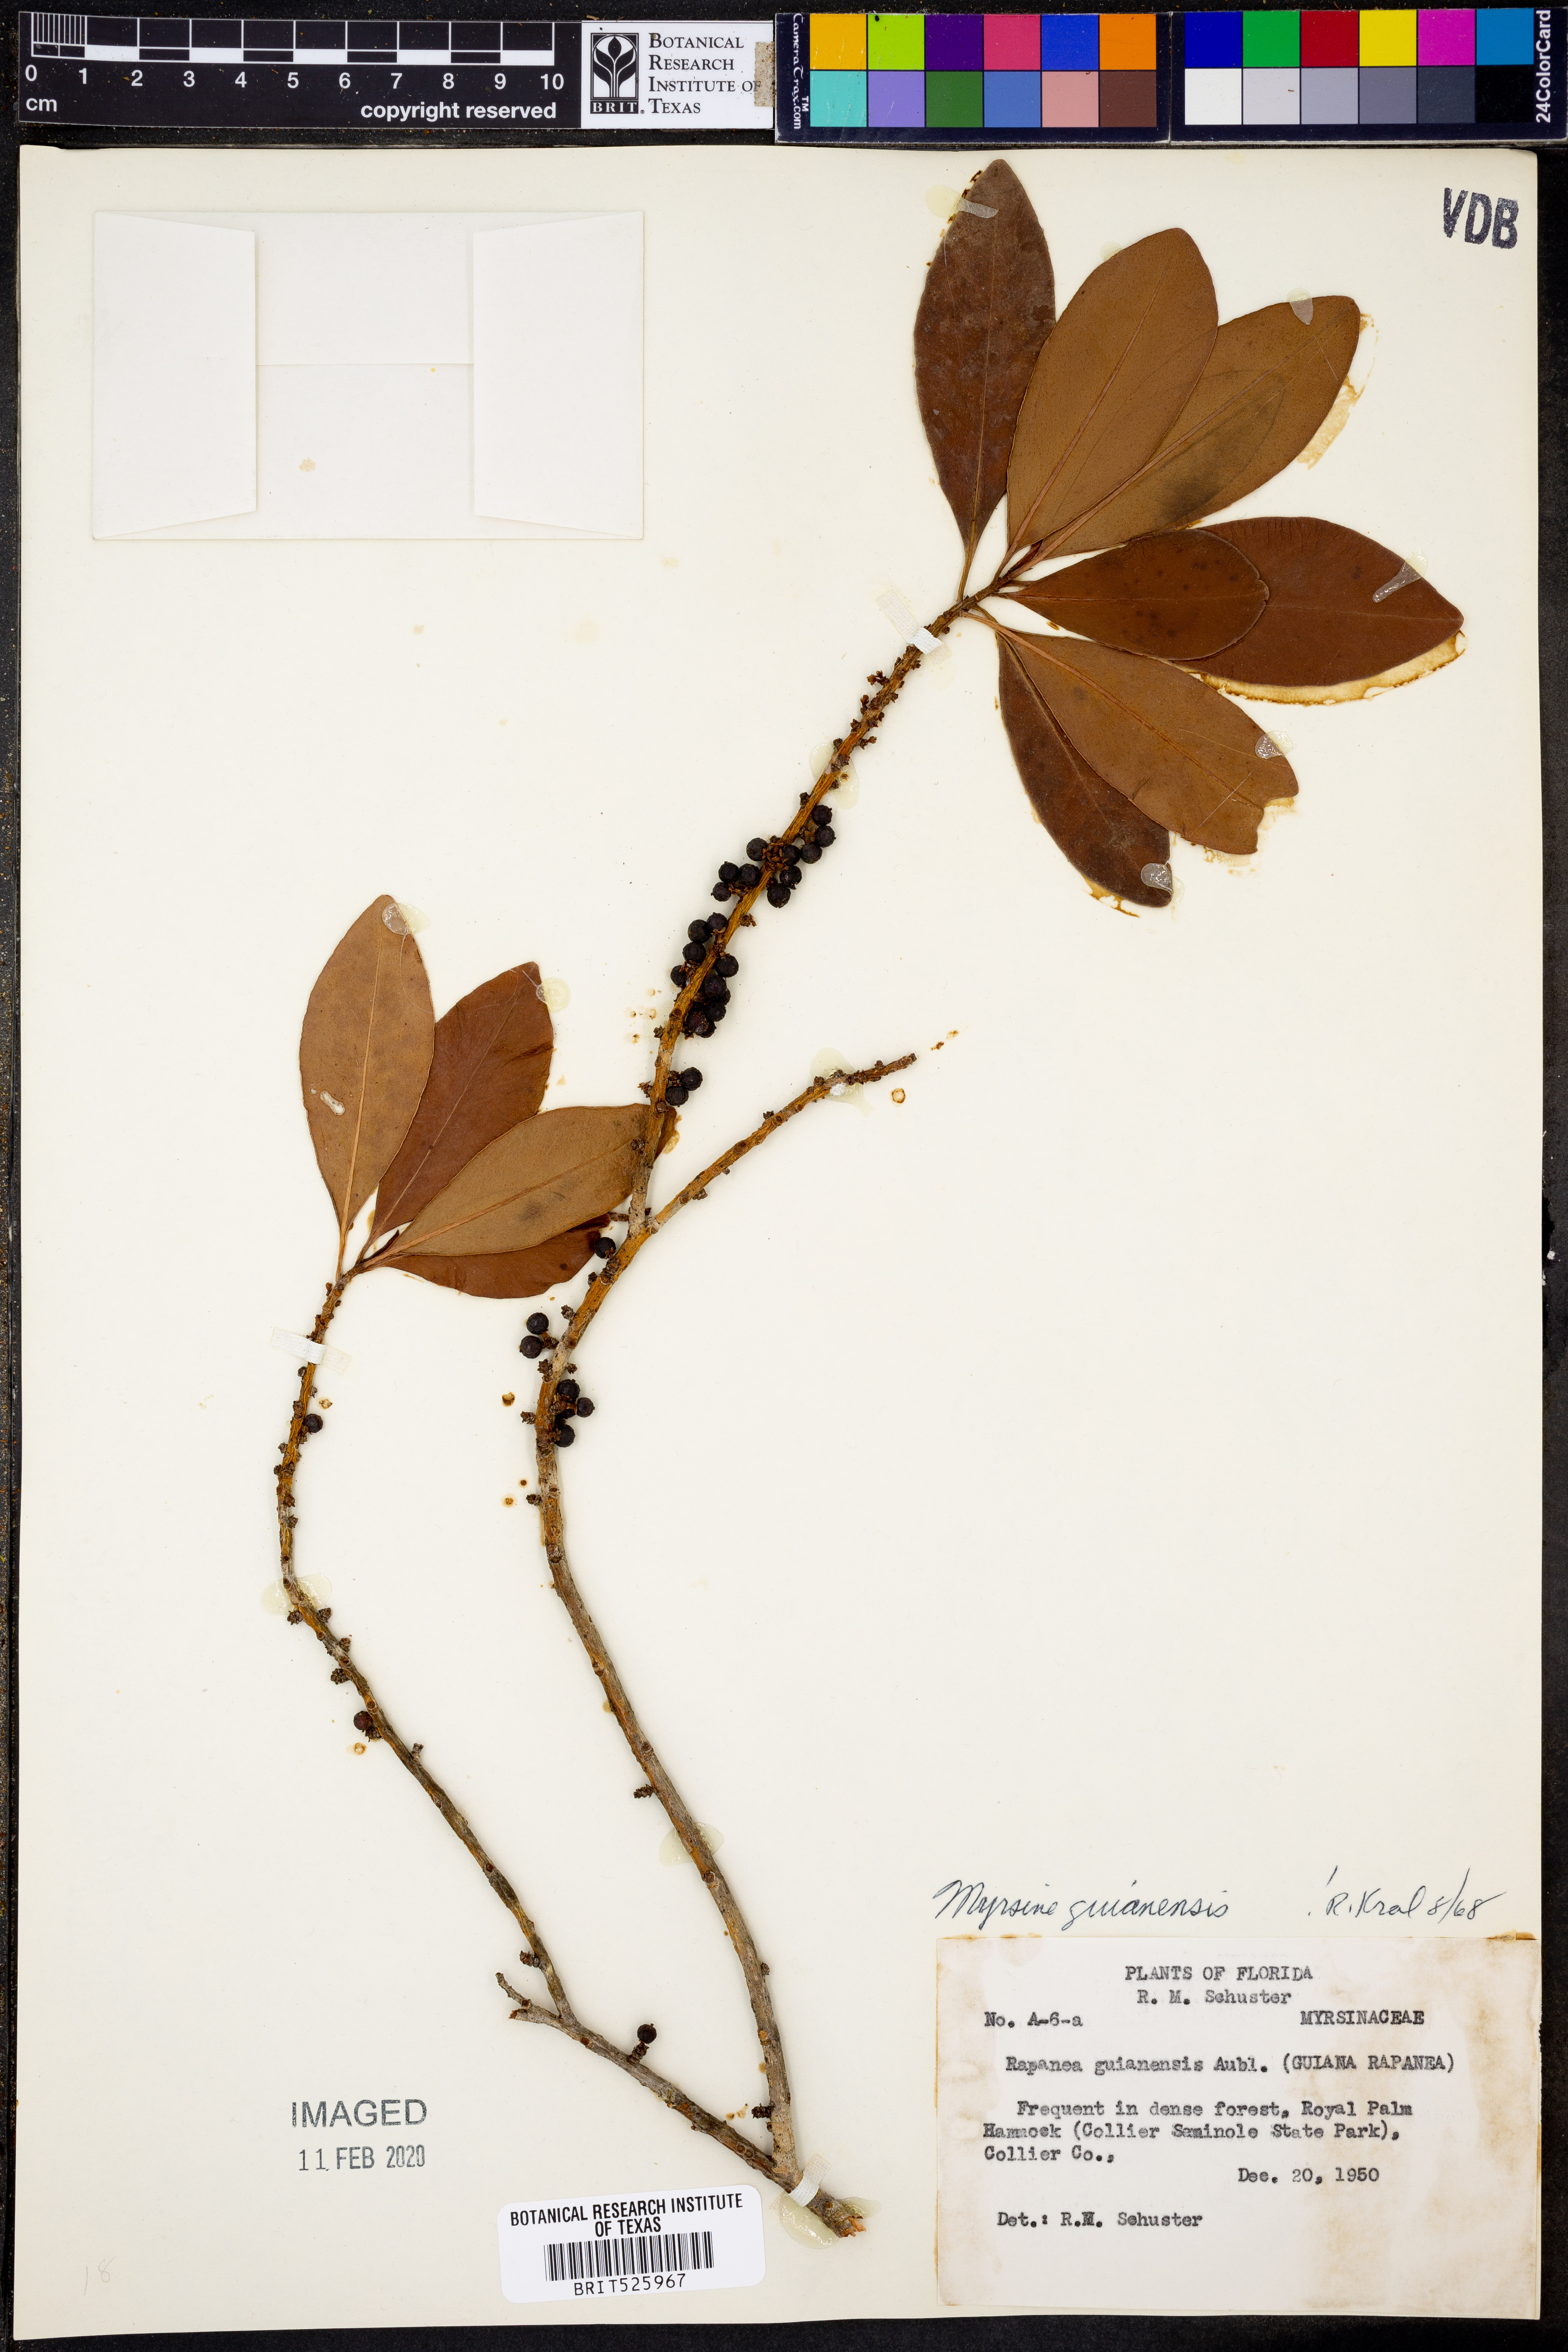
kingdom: Plantae
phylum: Tracheophyta
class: Magnoliopsida
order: Ericales
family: Primulaceae
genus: Myrsine
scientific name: Myrsine guianensis
